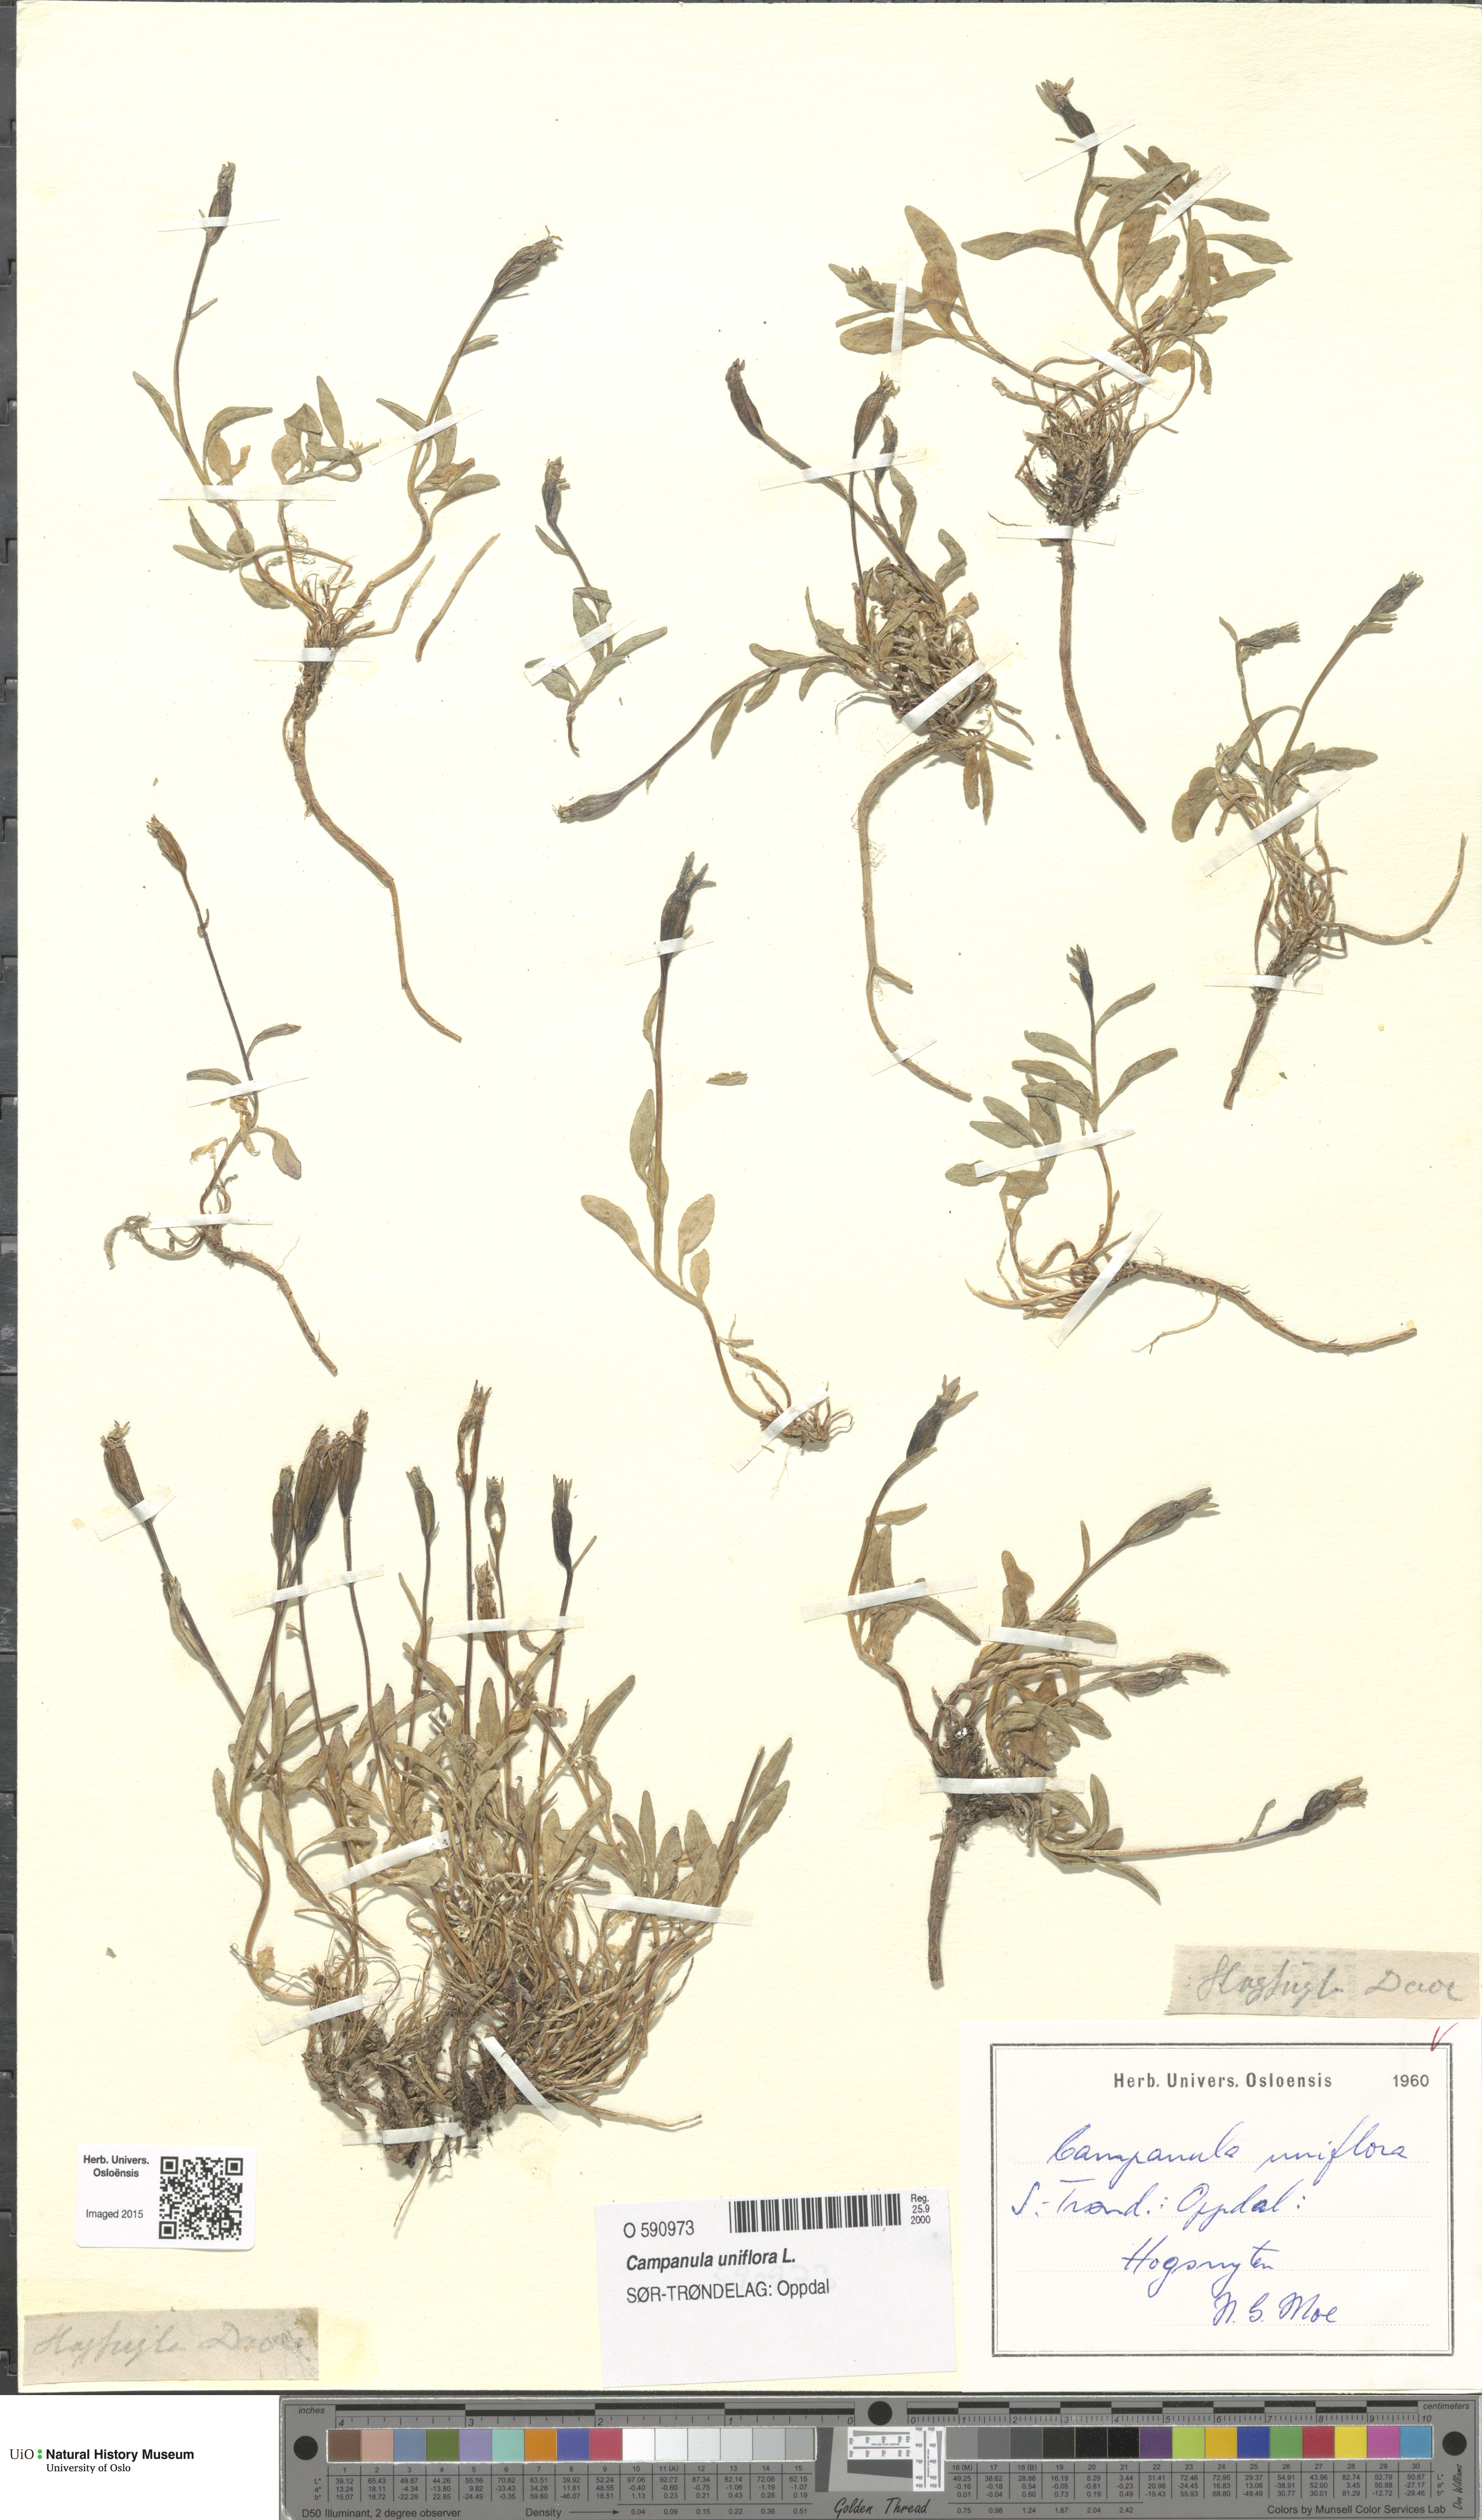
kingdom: Plantae
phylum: Tracheophyta
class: Magnoliopsida
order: Asterales
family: Campanulaceae
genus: Melanocalyx
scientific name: Melanocalyx uniflora
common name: Alpine harebell
